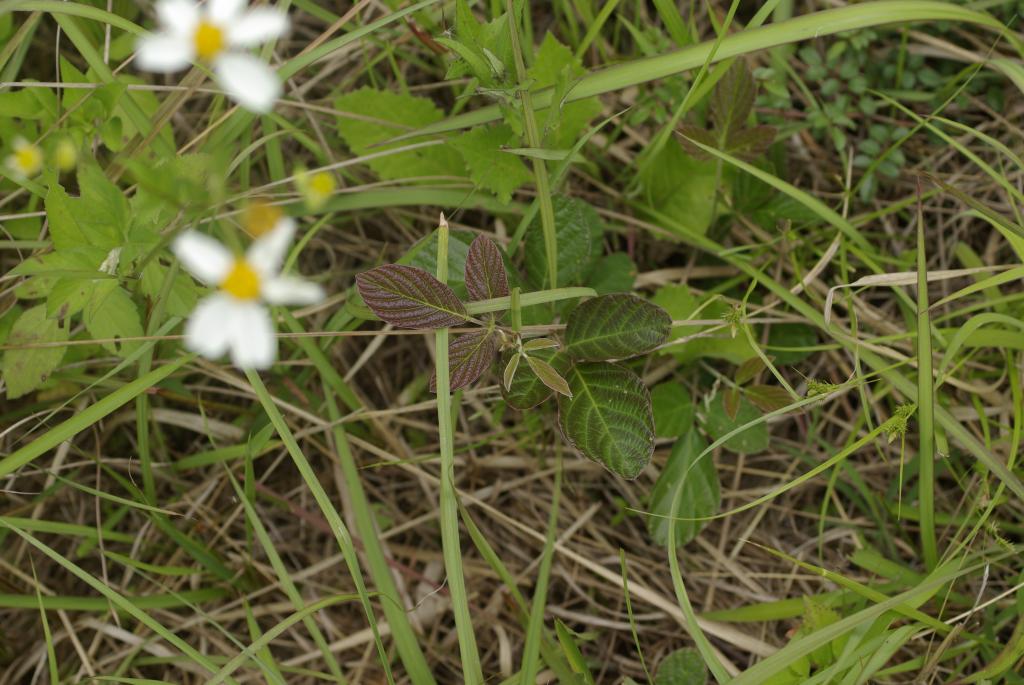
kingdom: Plantae
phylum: Tracheophyta
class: Magnoliopsida
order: Fabales
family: Fabaceae
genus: Phyllodium
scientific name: Phyllodium pulchellum
